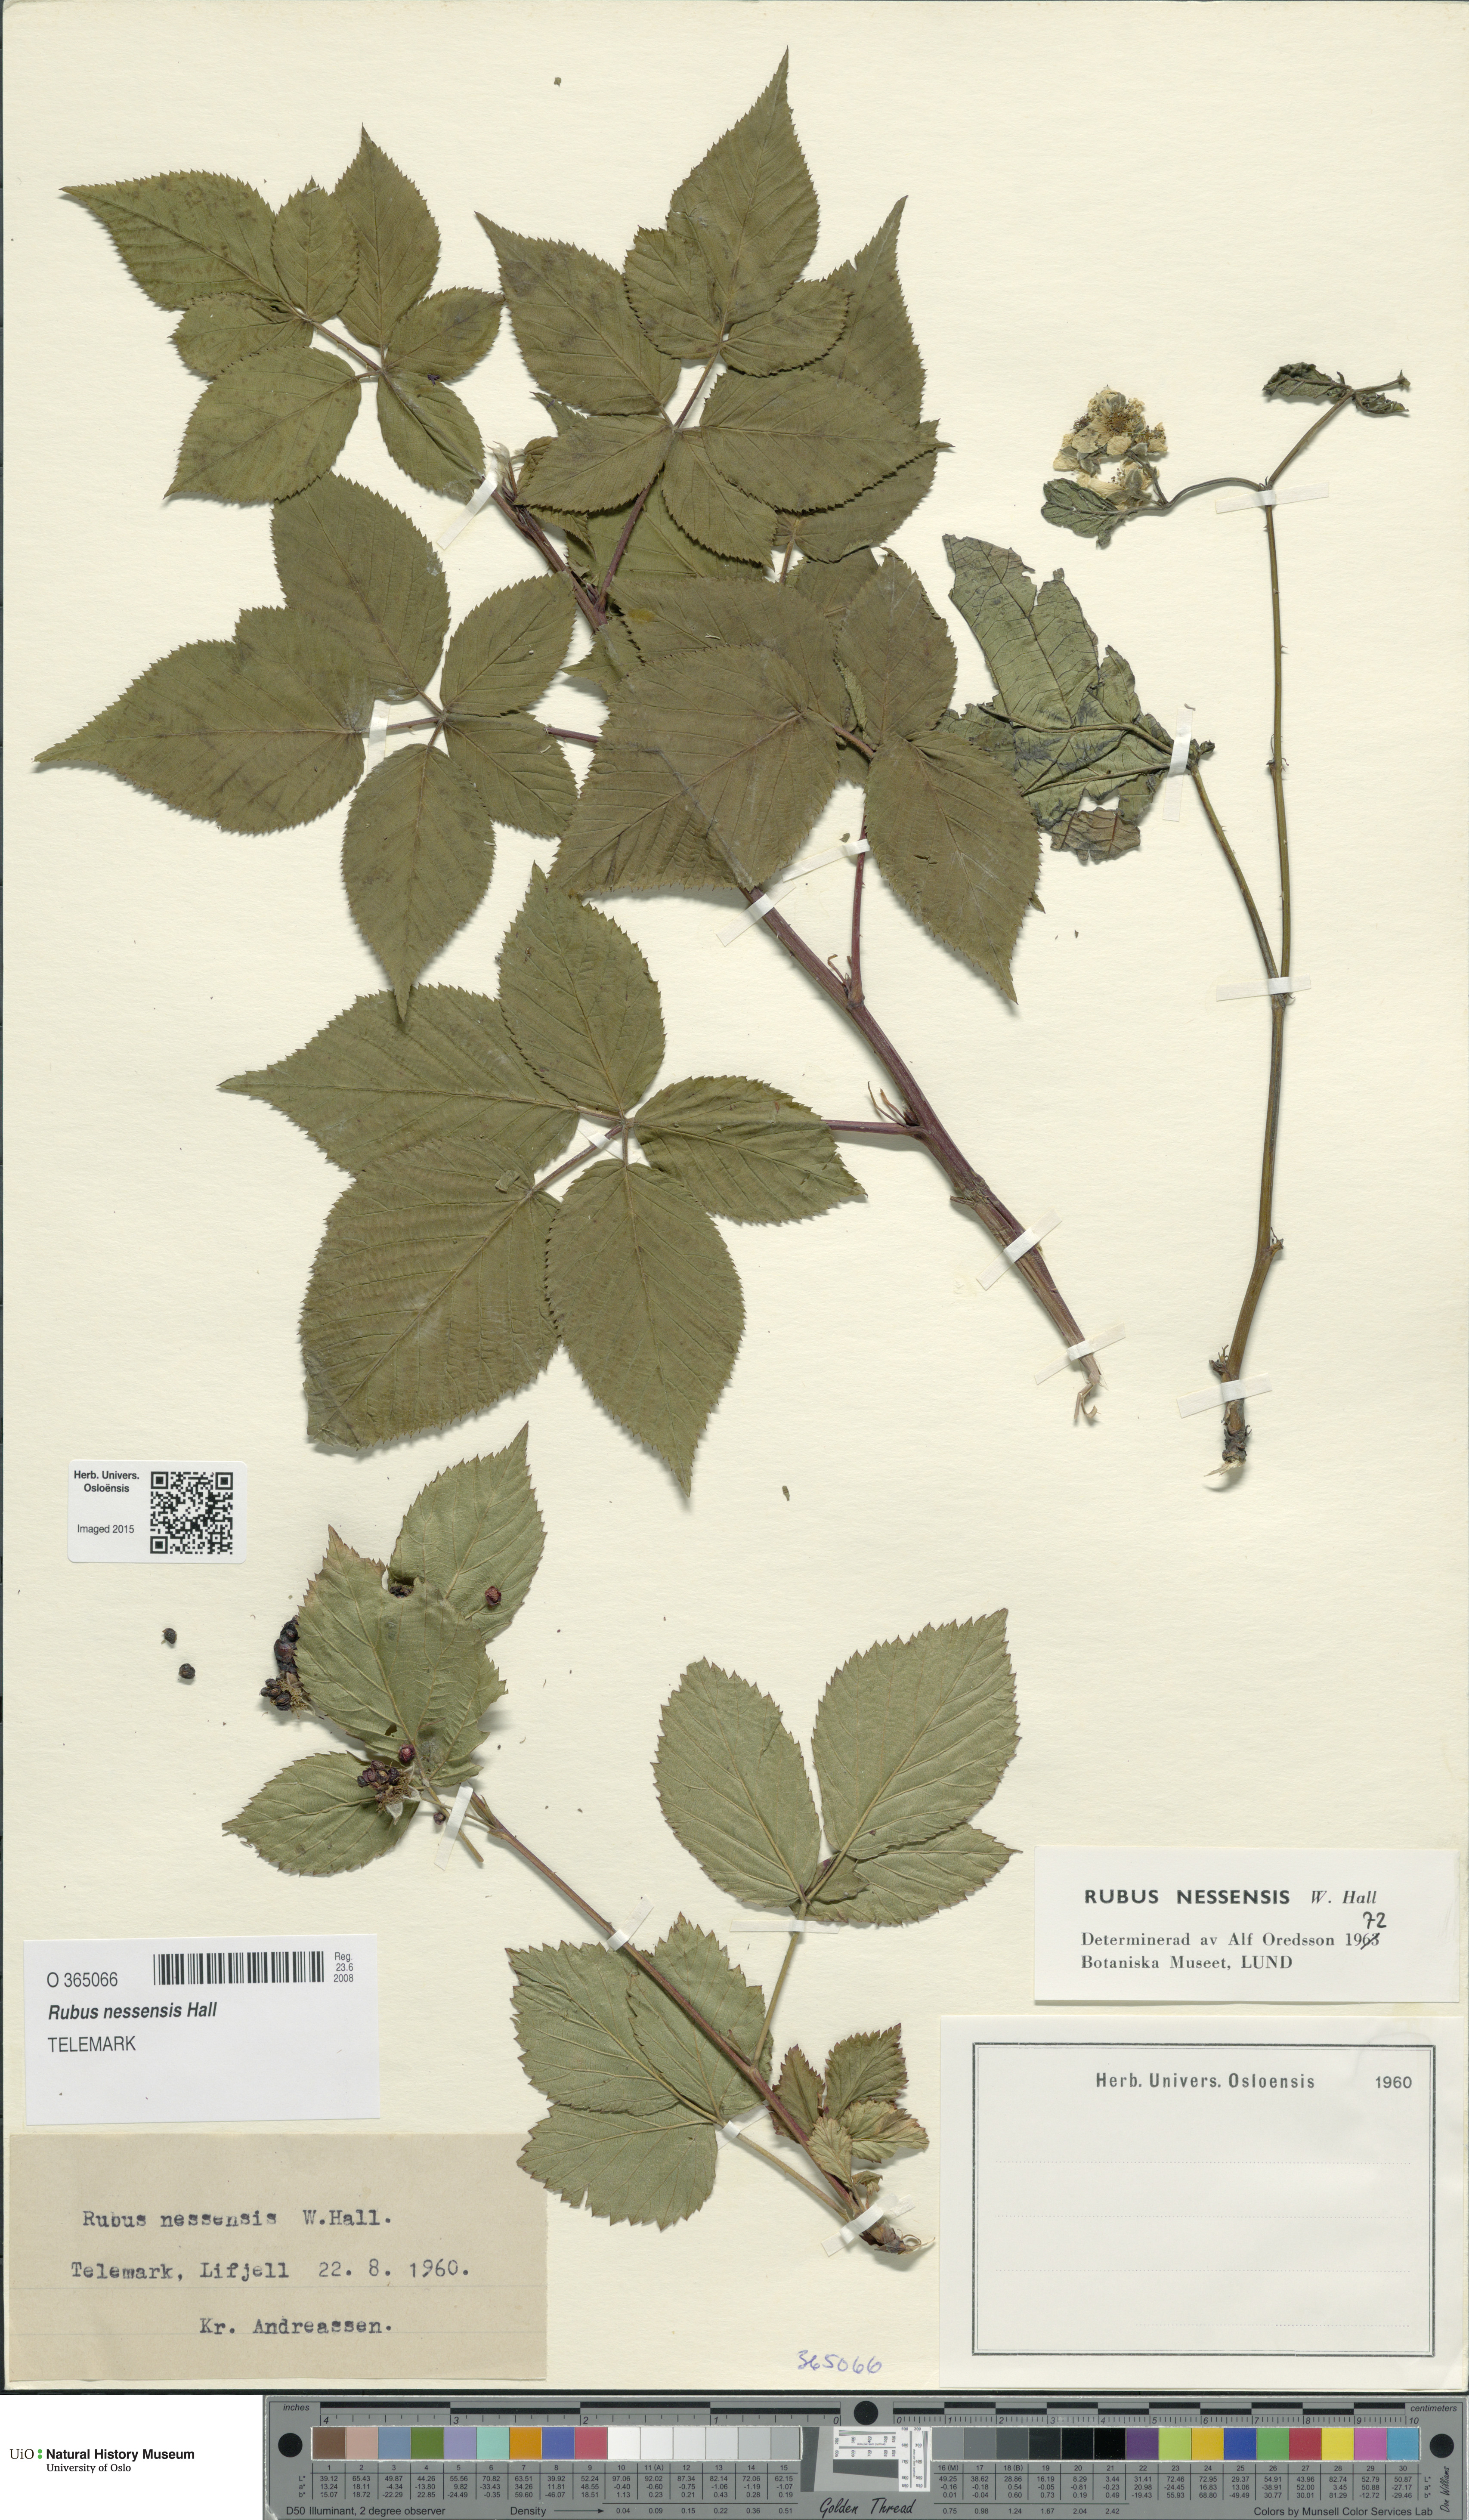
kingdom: Plantae
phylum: Tracheophyta
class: Magnoliopsida
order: Rosales
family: Rosaceae
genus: Rubus
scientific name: Rubus polonicus
